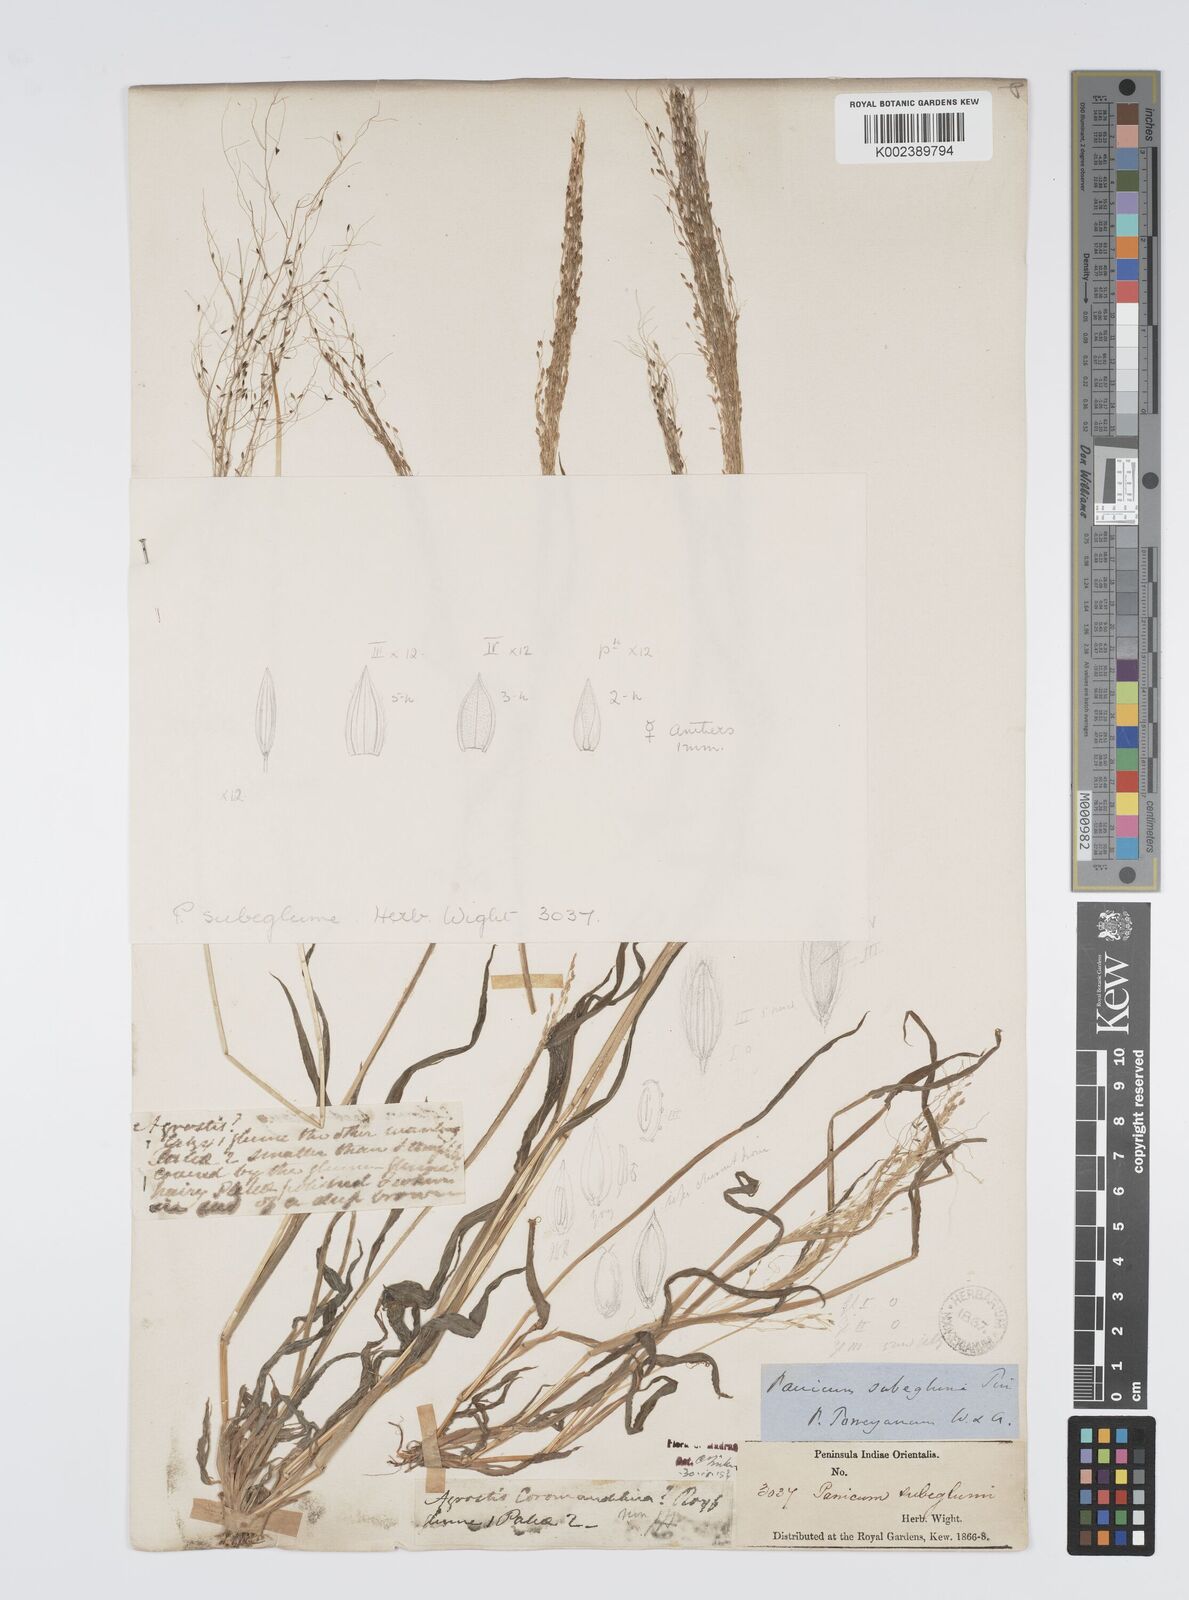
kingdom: Plantae
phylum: Tracheophyta
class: Liliopsida
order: Poales
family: Poaceae
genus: Digitaria
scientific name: Digitaria tomentosa
